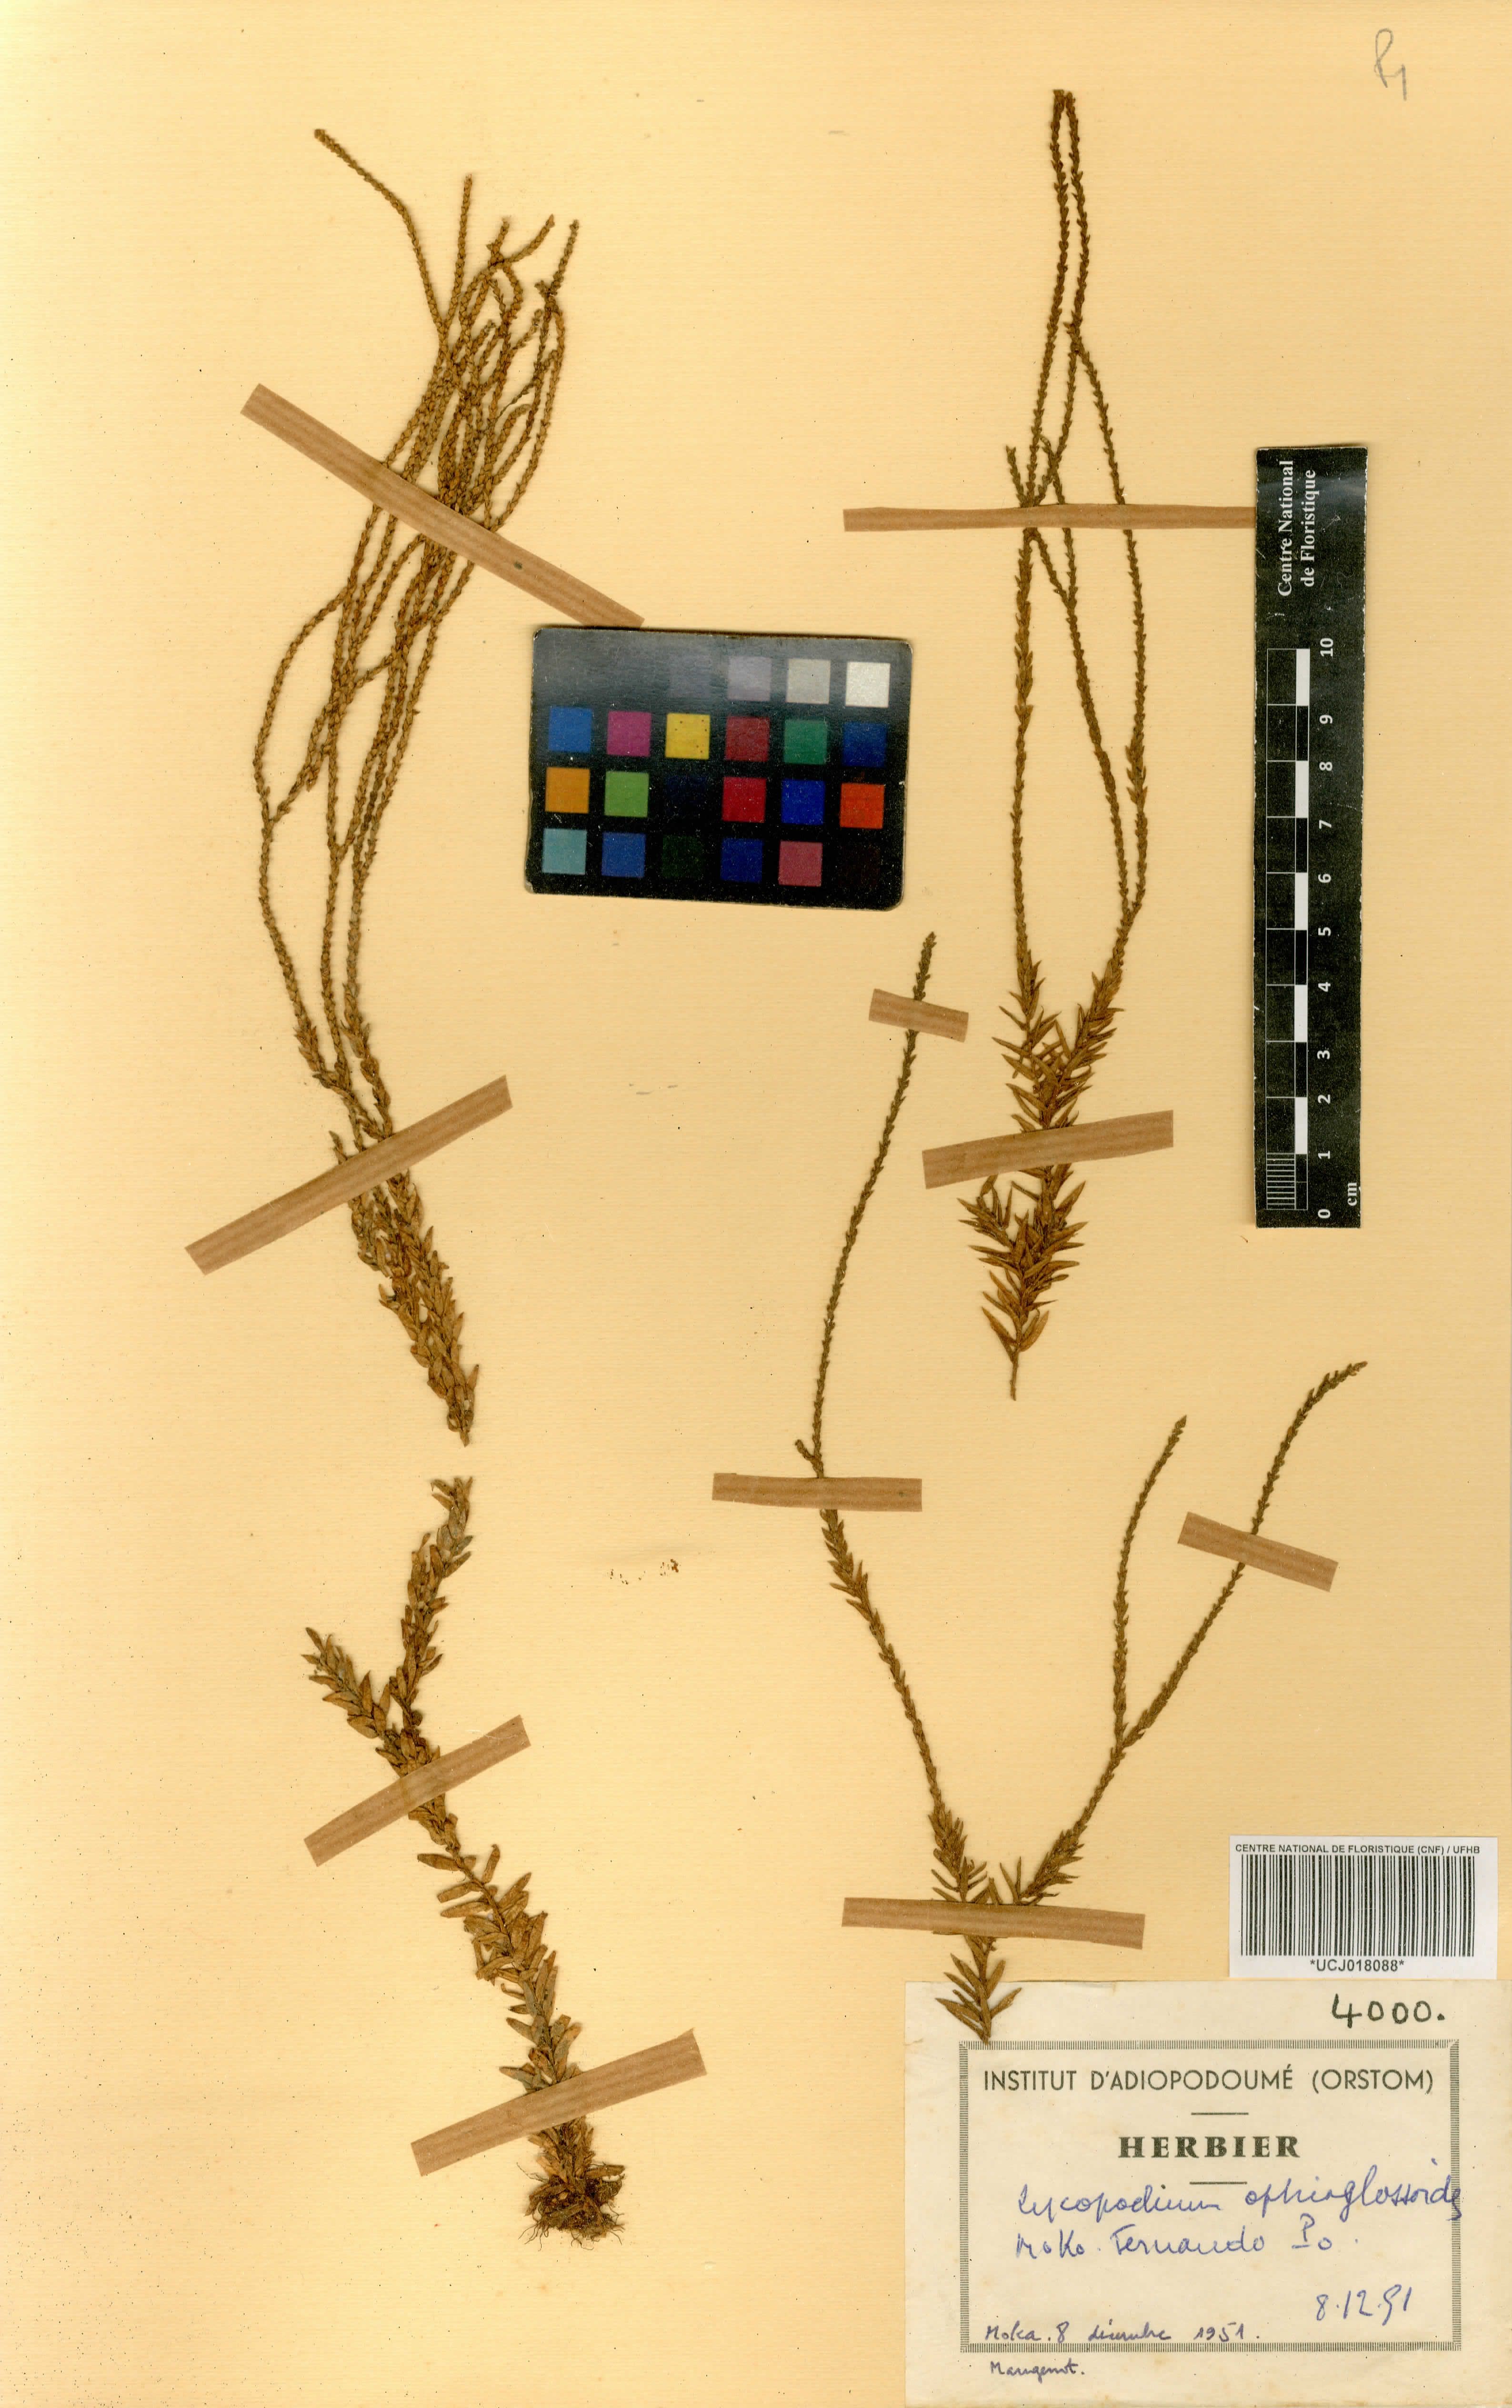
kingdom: Plantae
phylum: Tracheophyta
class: Lycopodiopsida
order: Lycopodiales
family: Lycopodiaceae
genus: Phlegmariurus
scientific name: Phlegmariurus ophioglossoides
